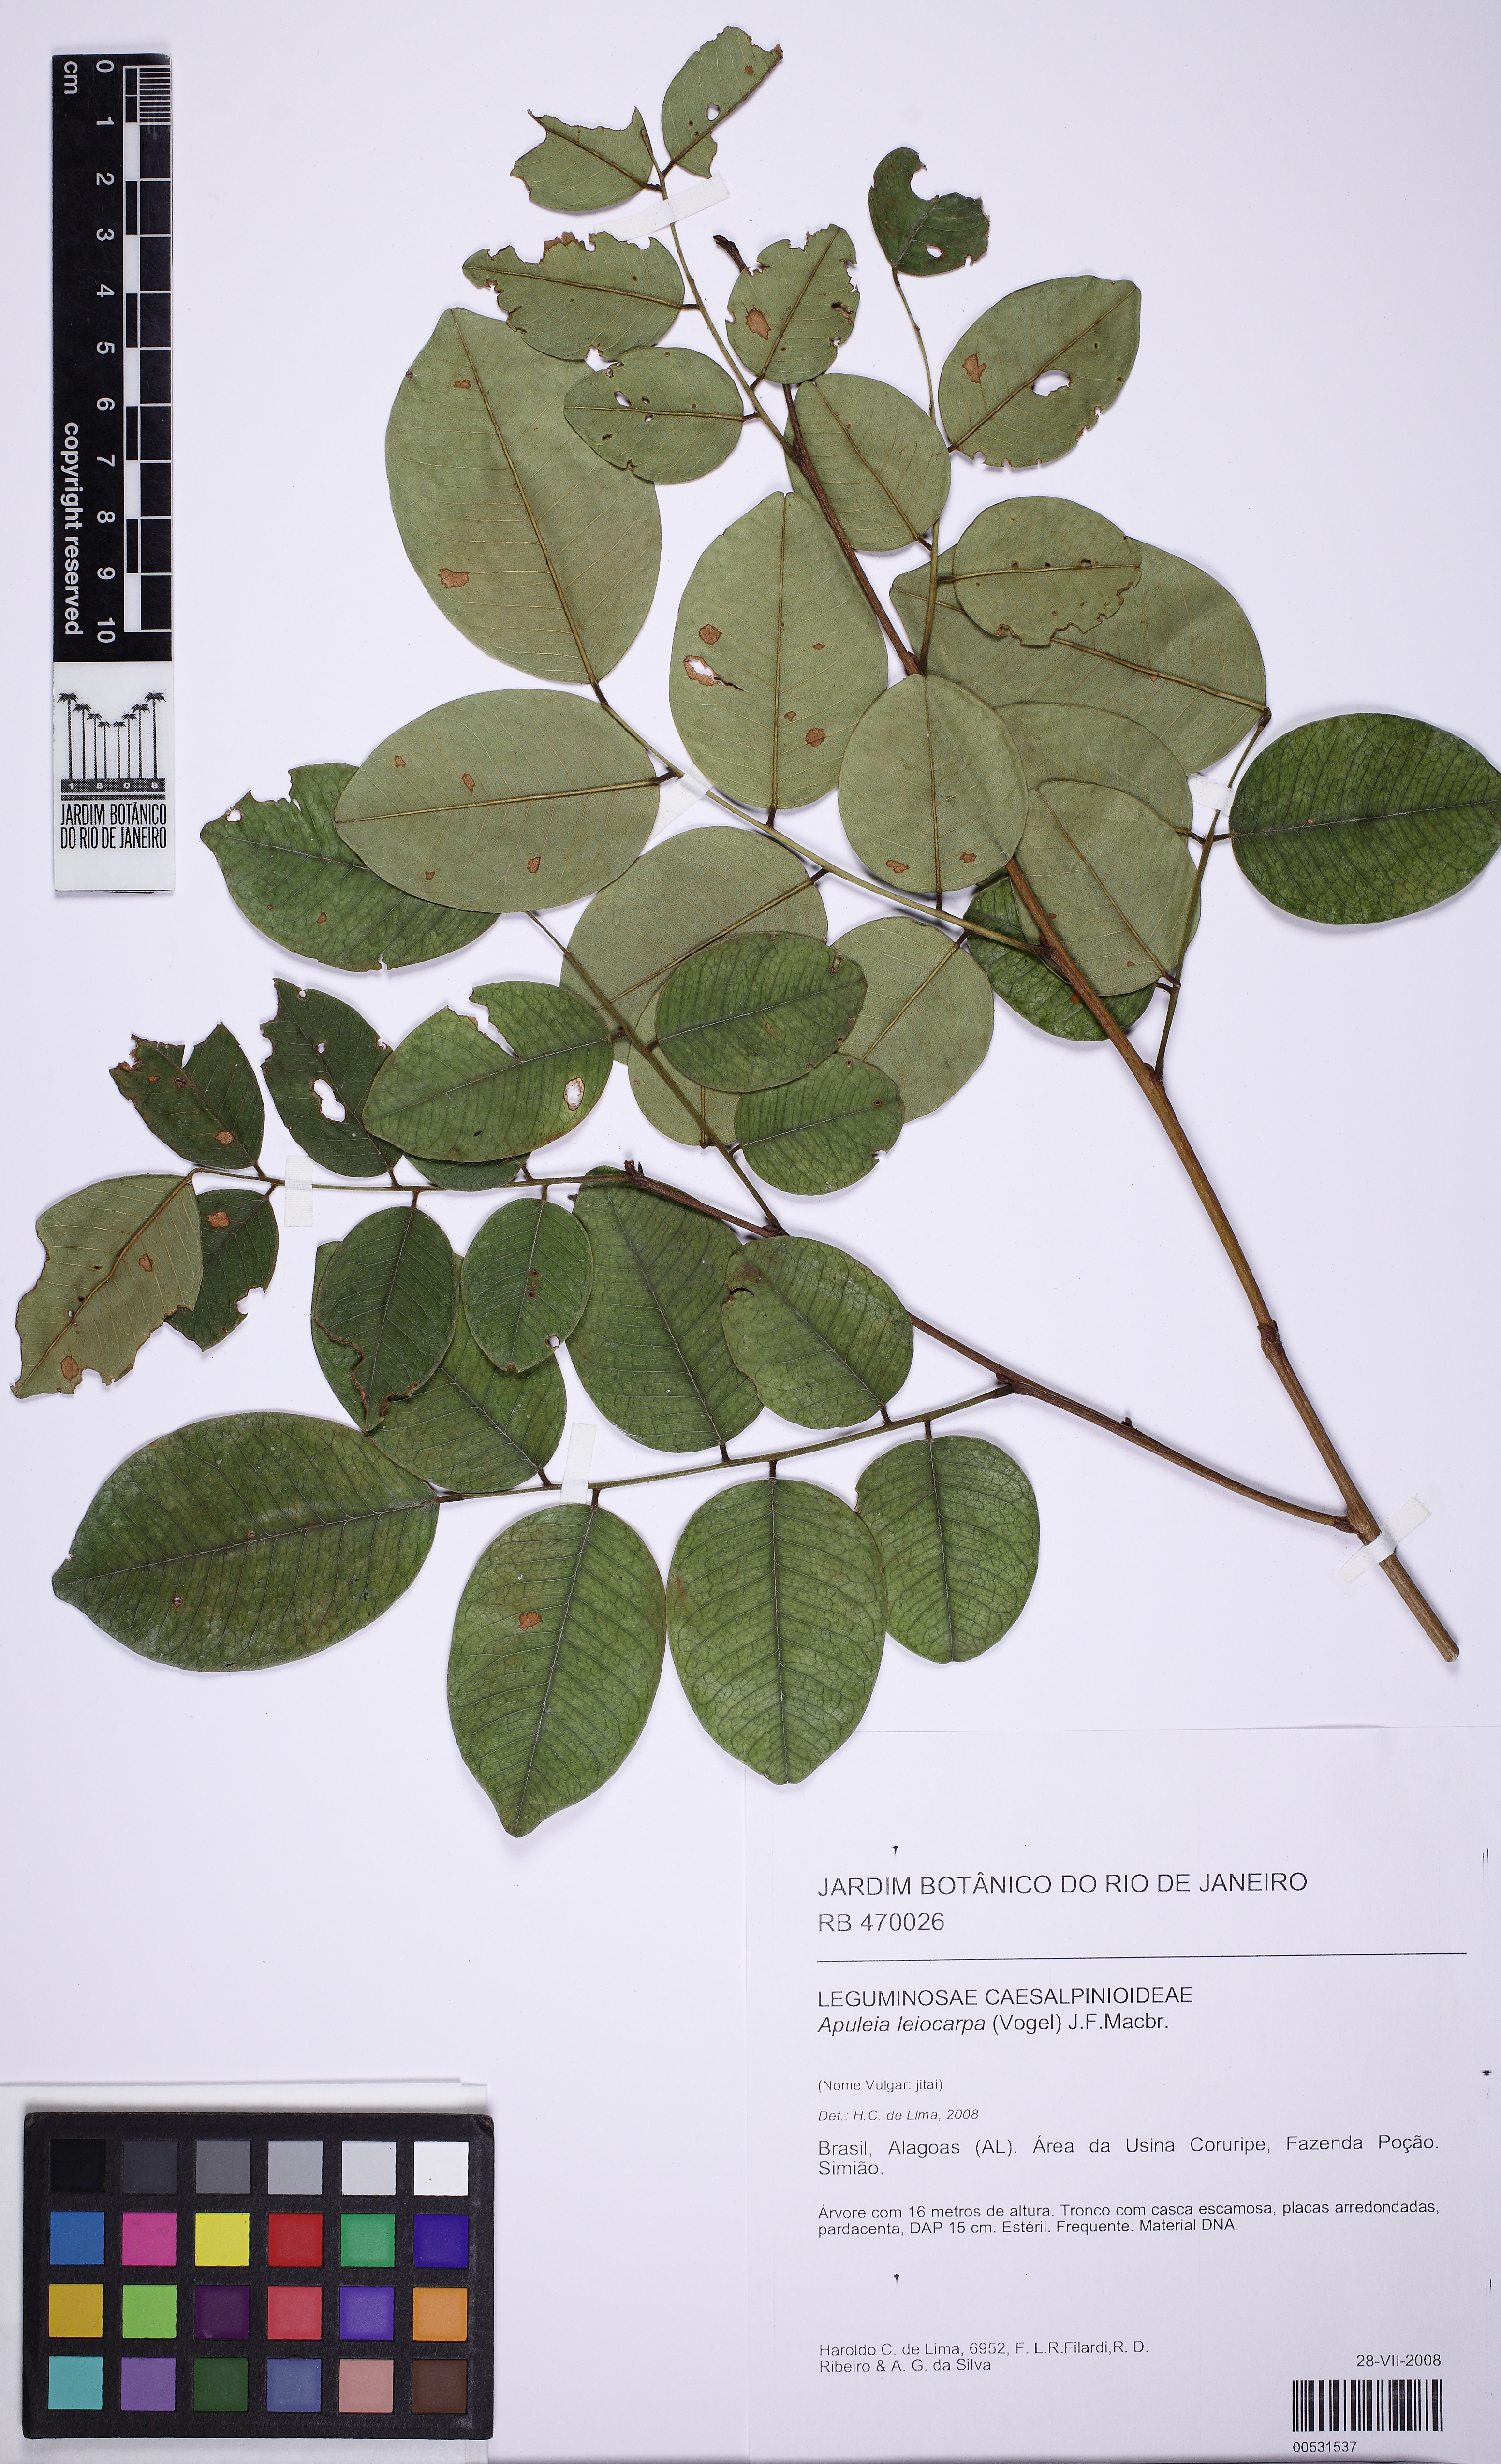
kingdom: Plantae
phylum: Tracheophyta
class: Magnoliopsida
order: Fabales
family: Fabaceae
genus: Apuleia
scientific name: Apuleia leiocarpa
